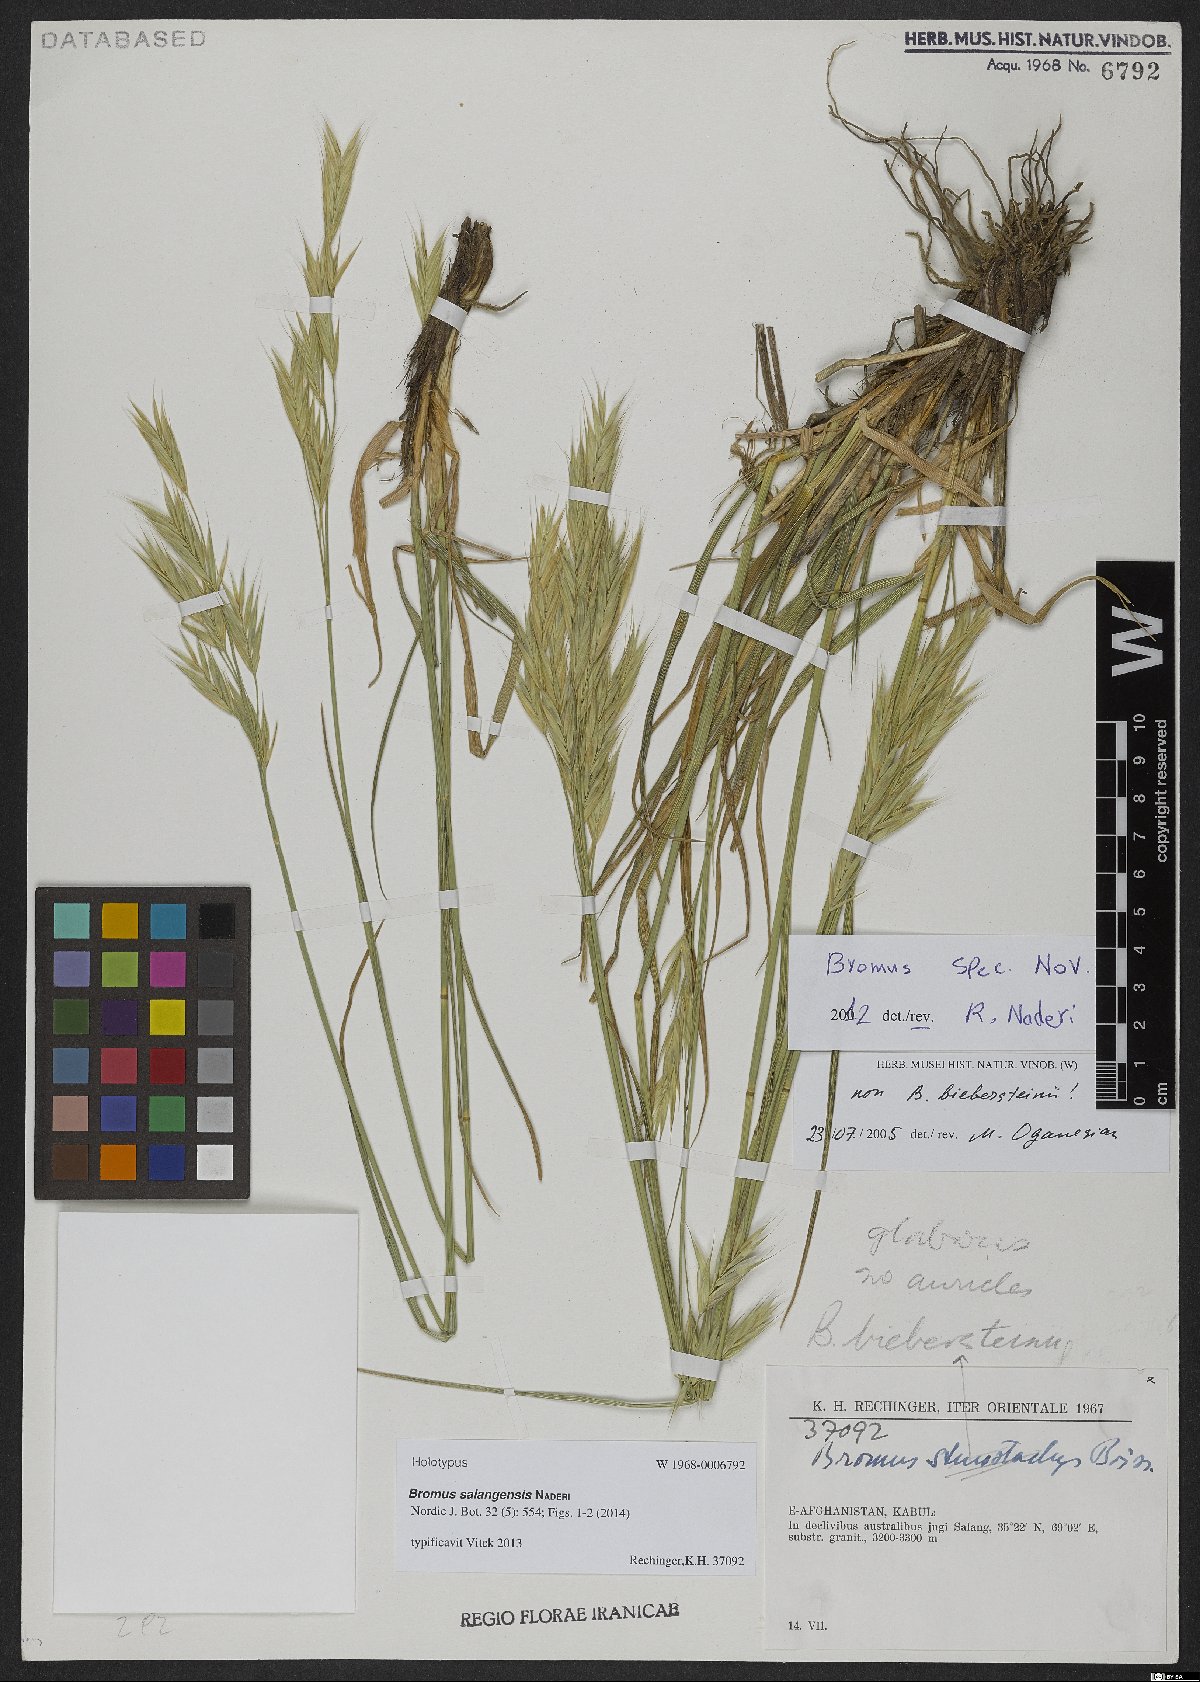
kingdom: Plantae
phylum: Tracheophyta
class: Liliopsida
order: Poales
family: Poaceae
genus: Bromus
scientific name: Bromus salangensis
